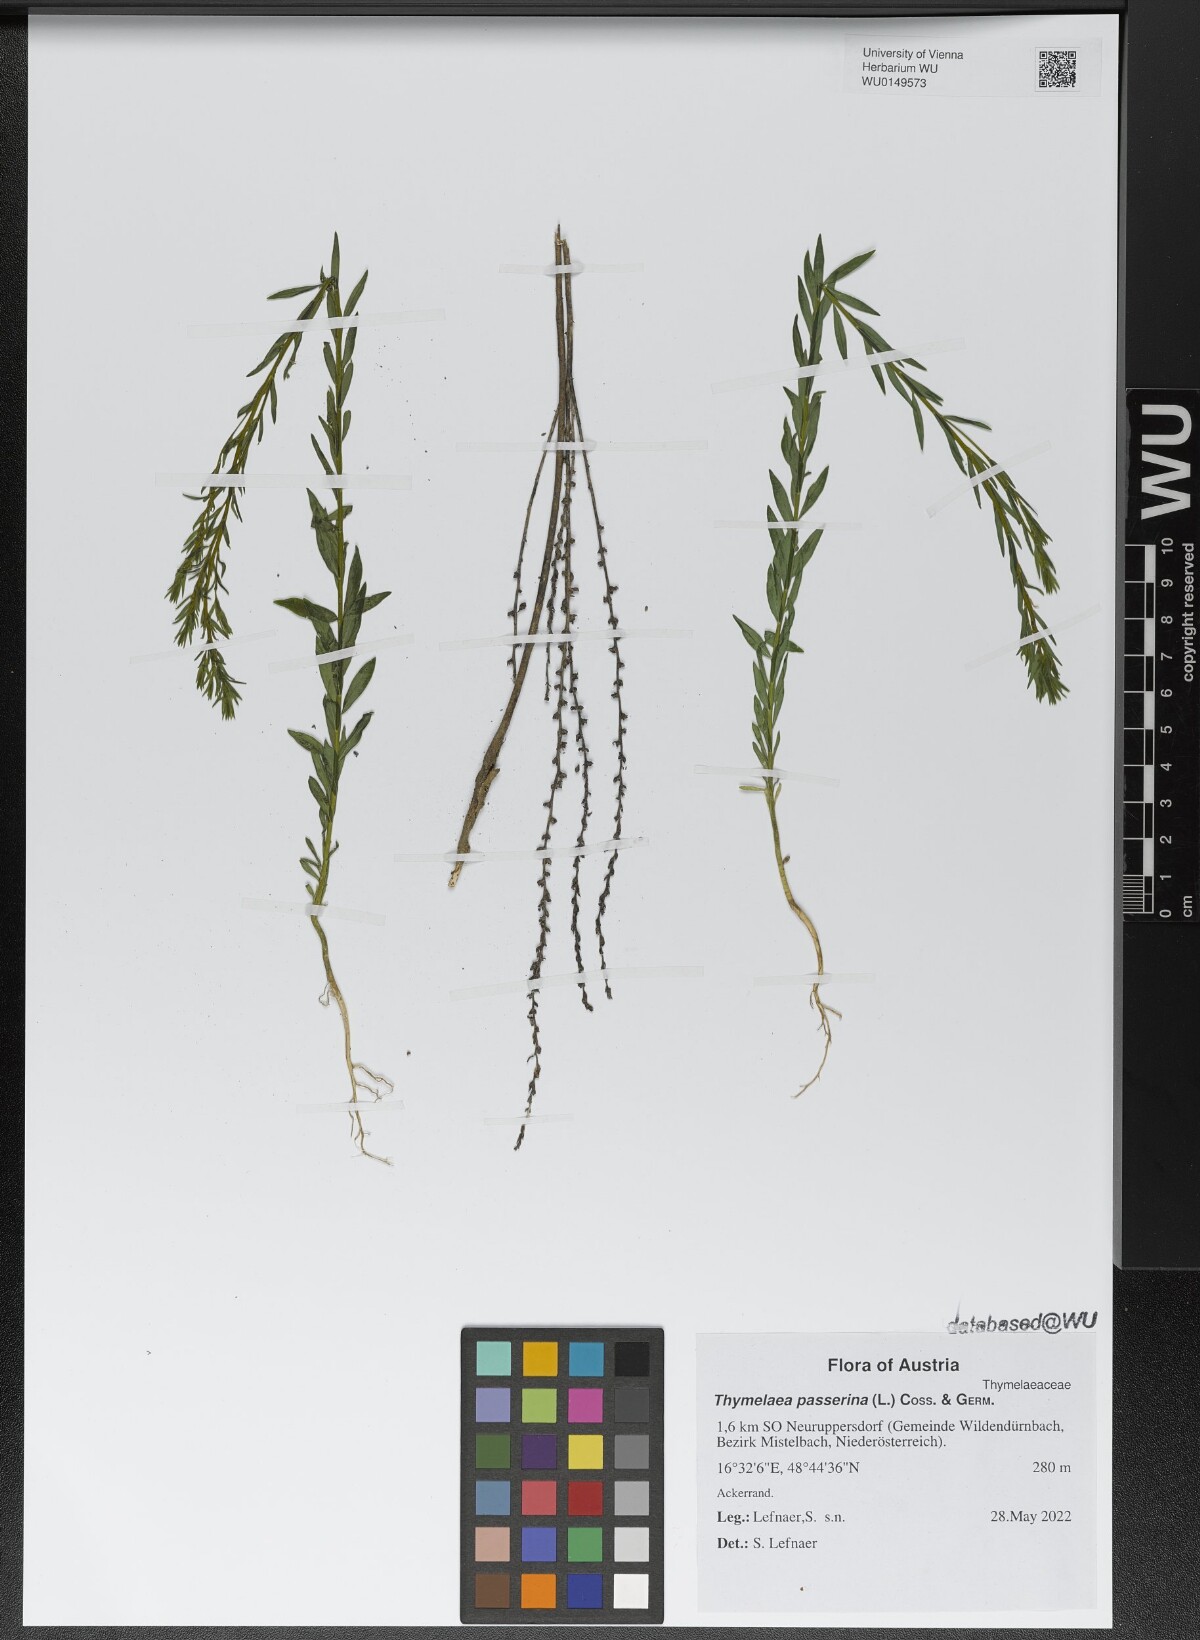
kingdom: Plantae
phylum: Tracheophyta
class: Magnoliopsida
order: Malvales
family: Thymelaeaceae
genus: Thymelaea
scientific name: Thymelaea passerina
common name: Annual thymelaea
